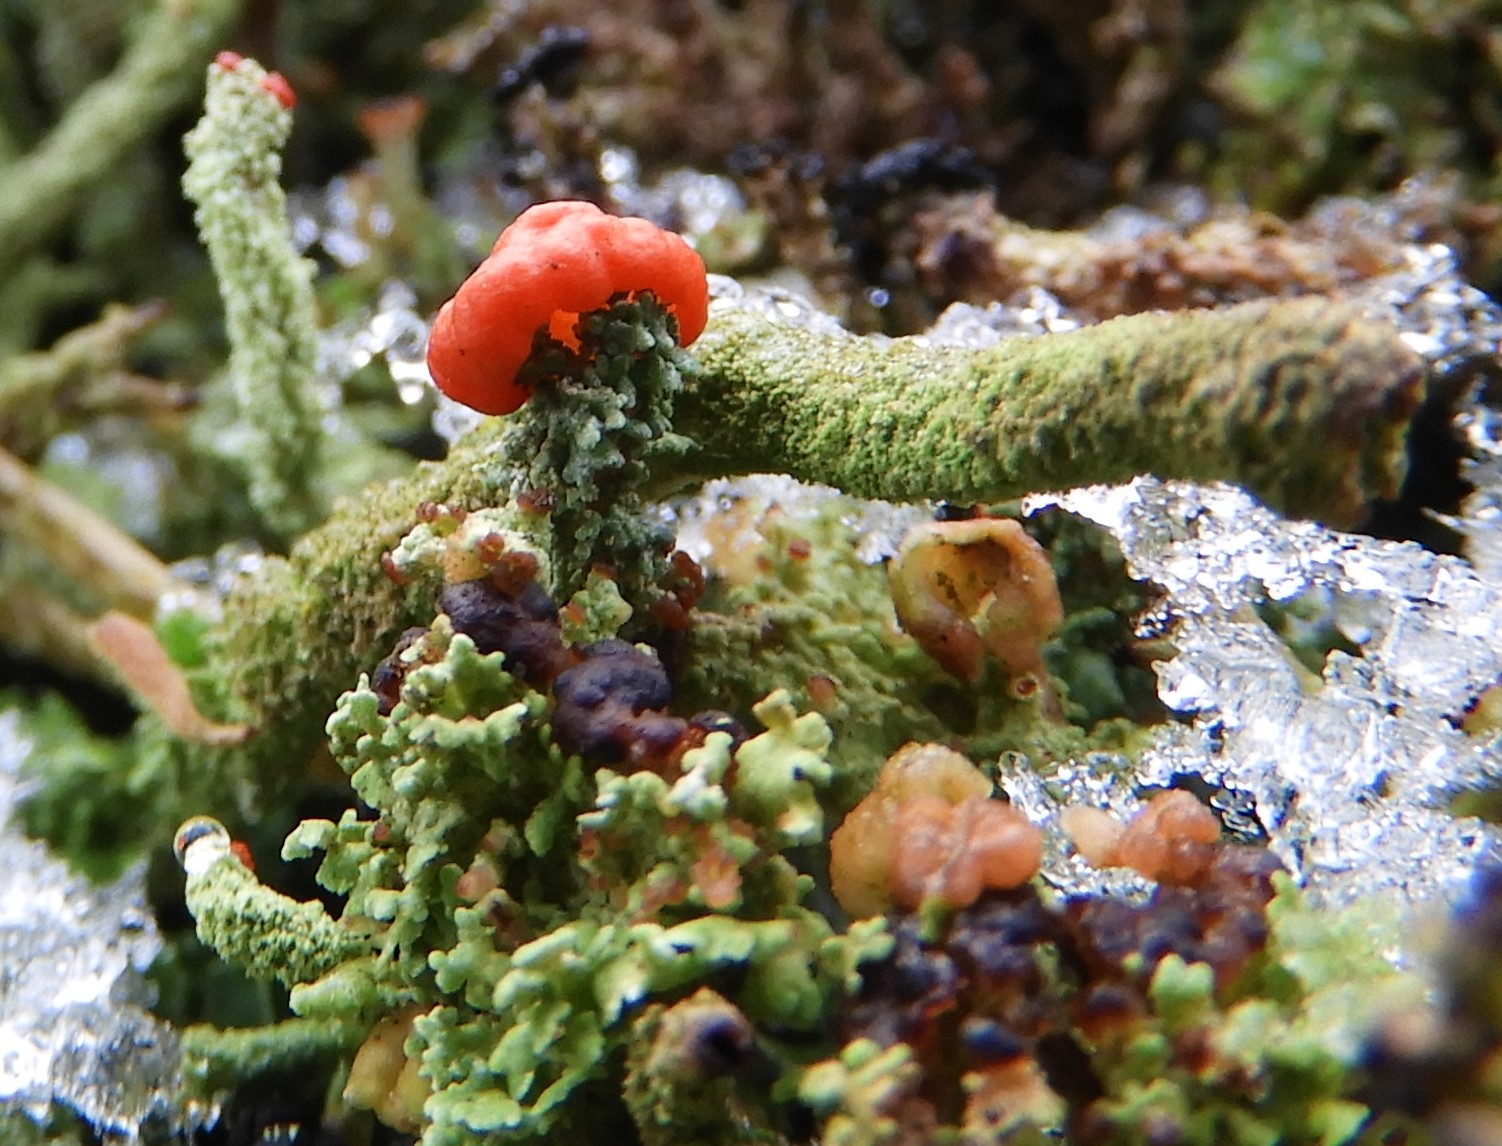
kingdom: Fungi
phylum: Ascomycota
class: Lecanoromycetes
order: Lecanorales
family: Cladoniaceae
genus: Cladonia
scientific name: Cladonia floerkeana
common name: lakrød bægerlav
